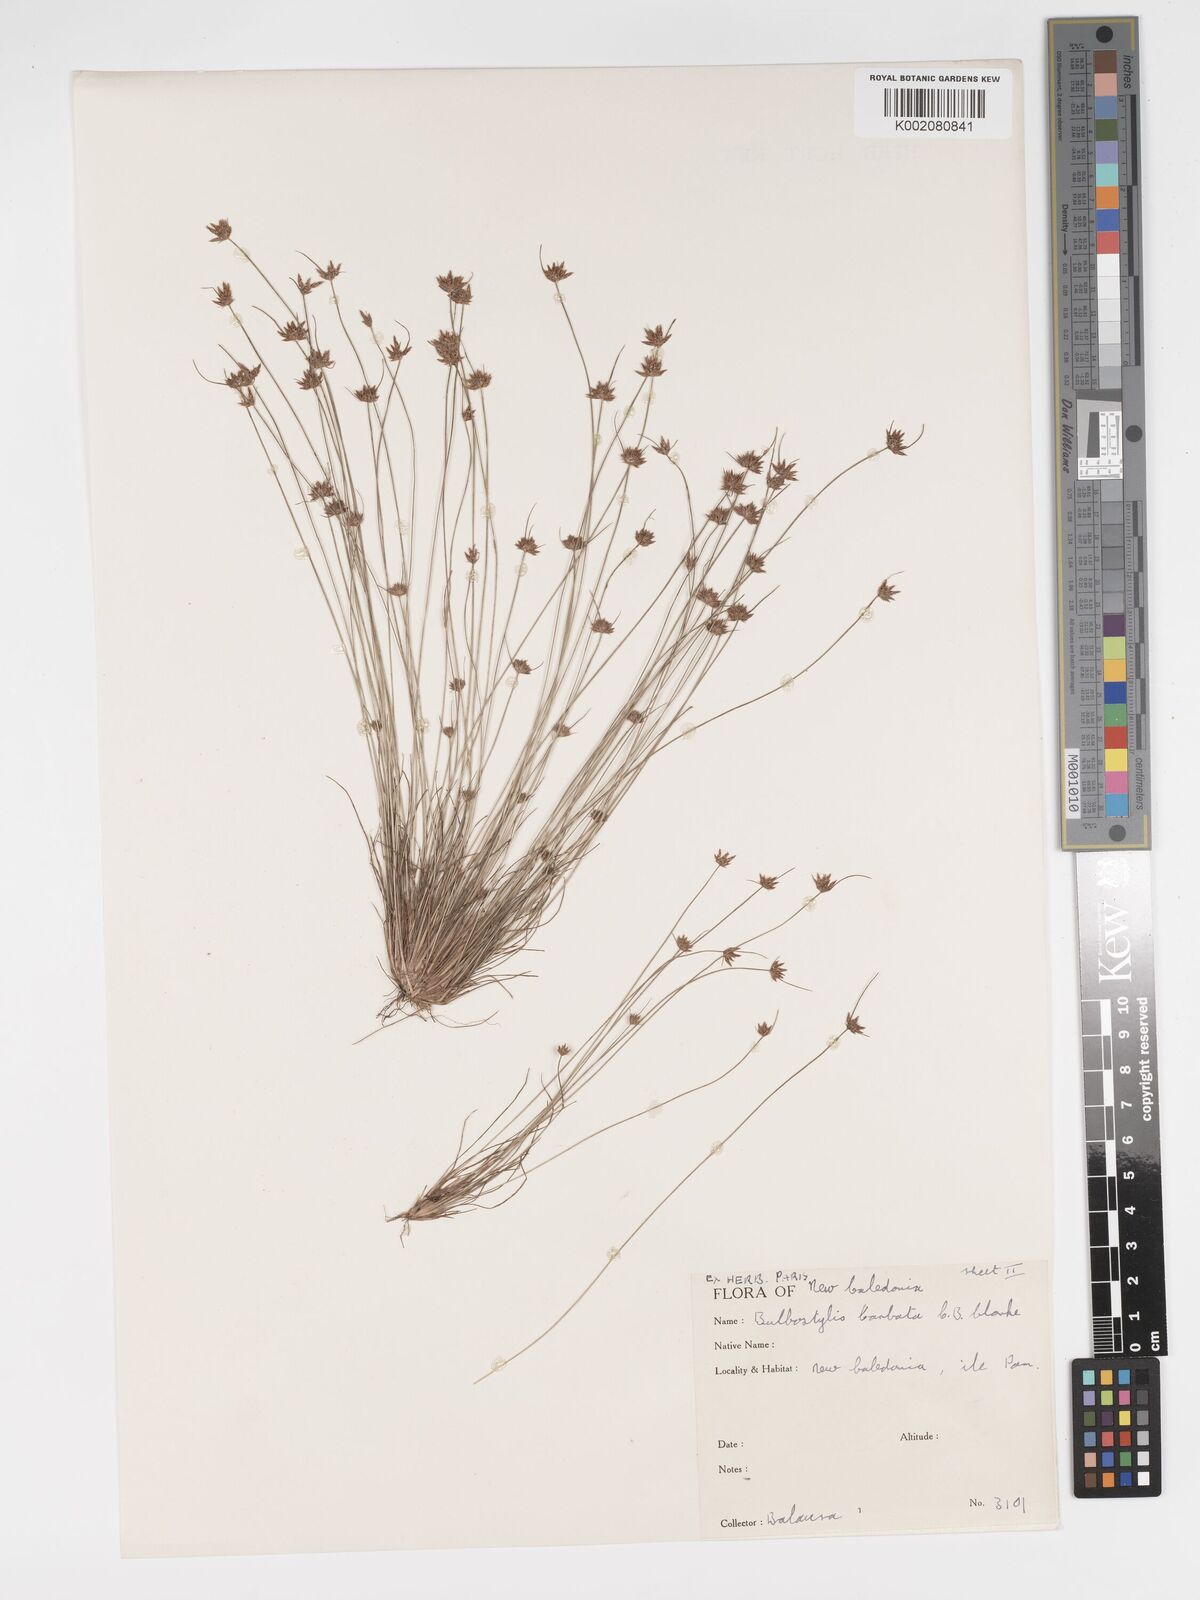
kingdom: Plantae
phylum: Tracheophyta
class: Liliopsida
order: Poales
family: Cyperaceae
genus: Bulbostylis
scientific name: Bulbostylis barbata
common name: Watergrass
